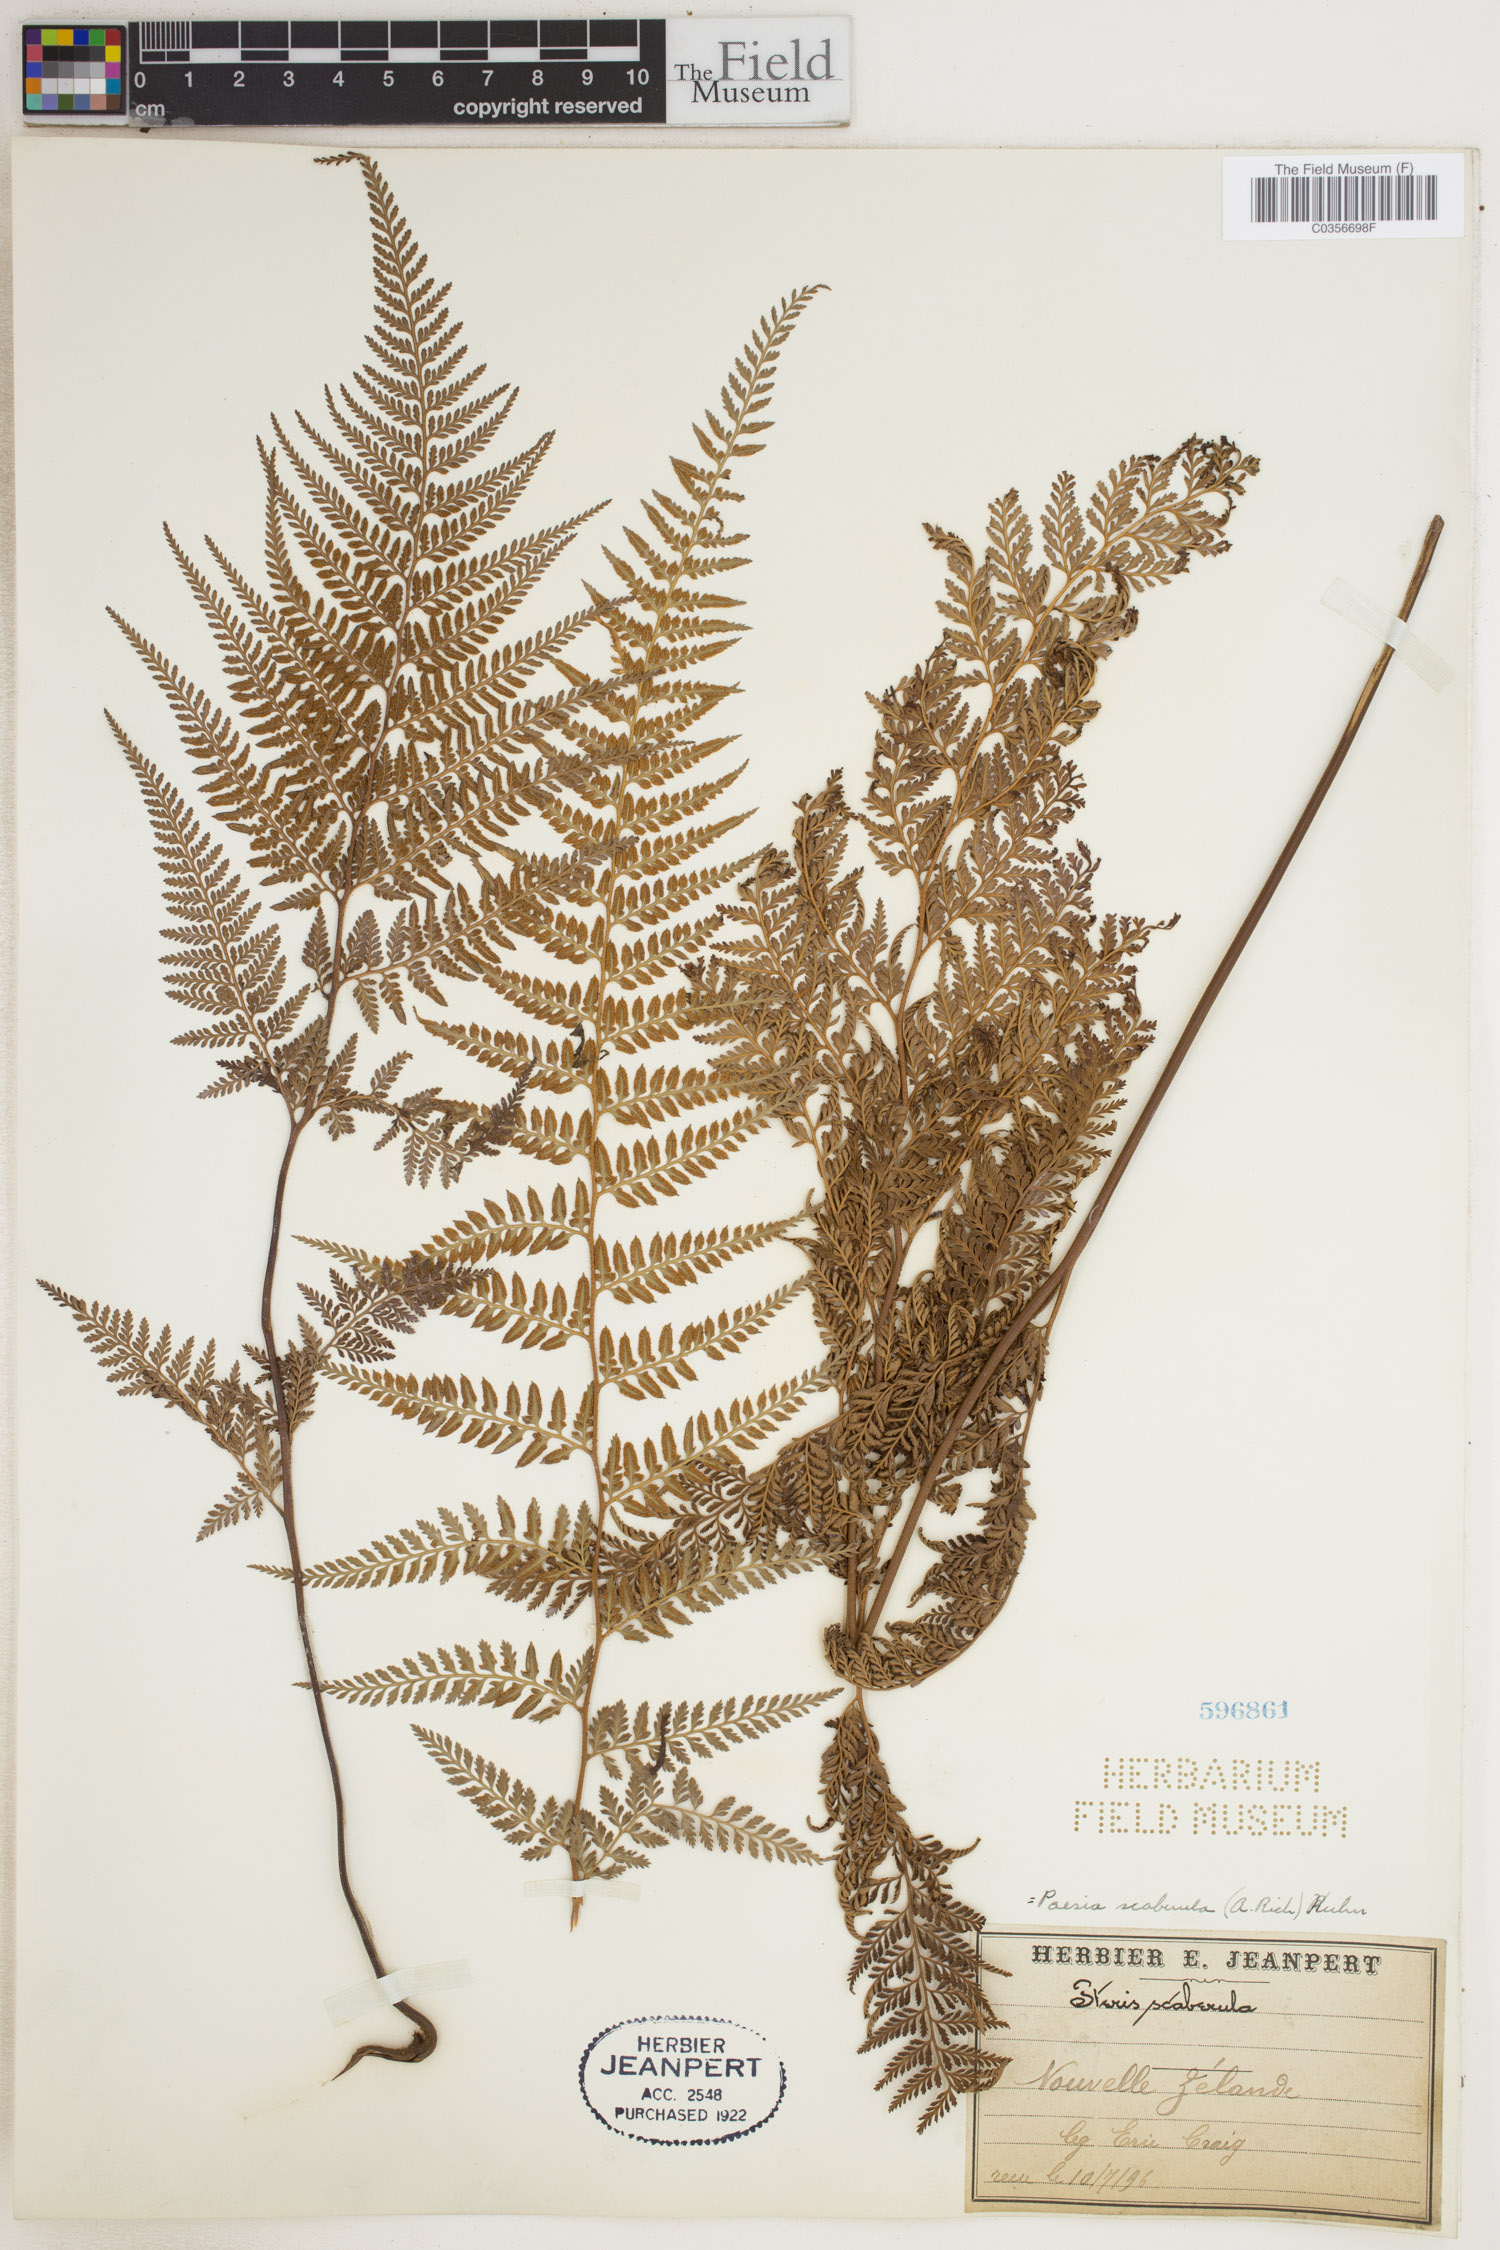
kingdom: Plantae
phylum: Tracheophyta
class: Polypodiopsida
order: Polypodiales
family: Dennstaedtiaceae
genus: Paesia
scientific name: Paesia scaberula
